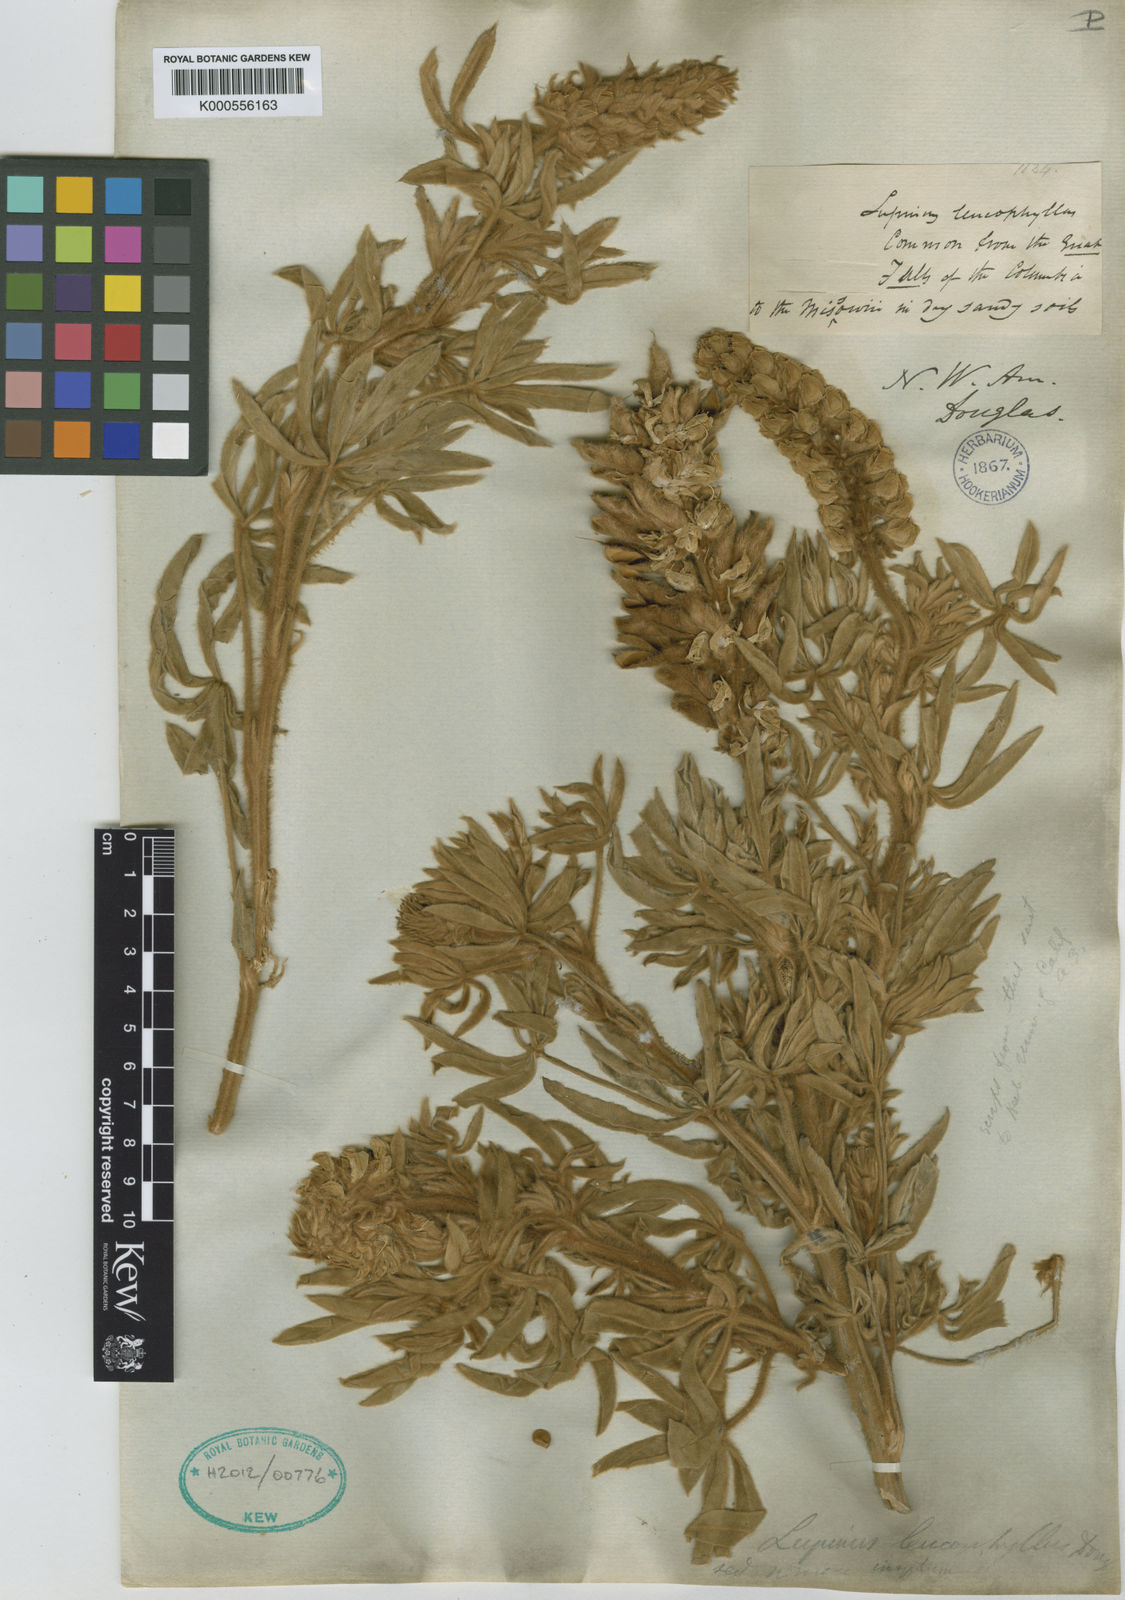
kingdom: Plantae
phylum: Tracheophyta
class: Magnoliopsida
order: Fabales
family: Fabaceae
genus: Lupinus
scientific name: Lupinus leucophyllus
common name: Woolly-leaf lupine
